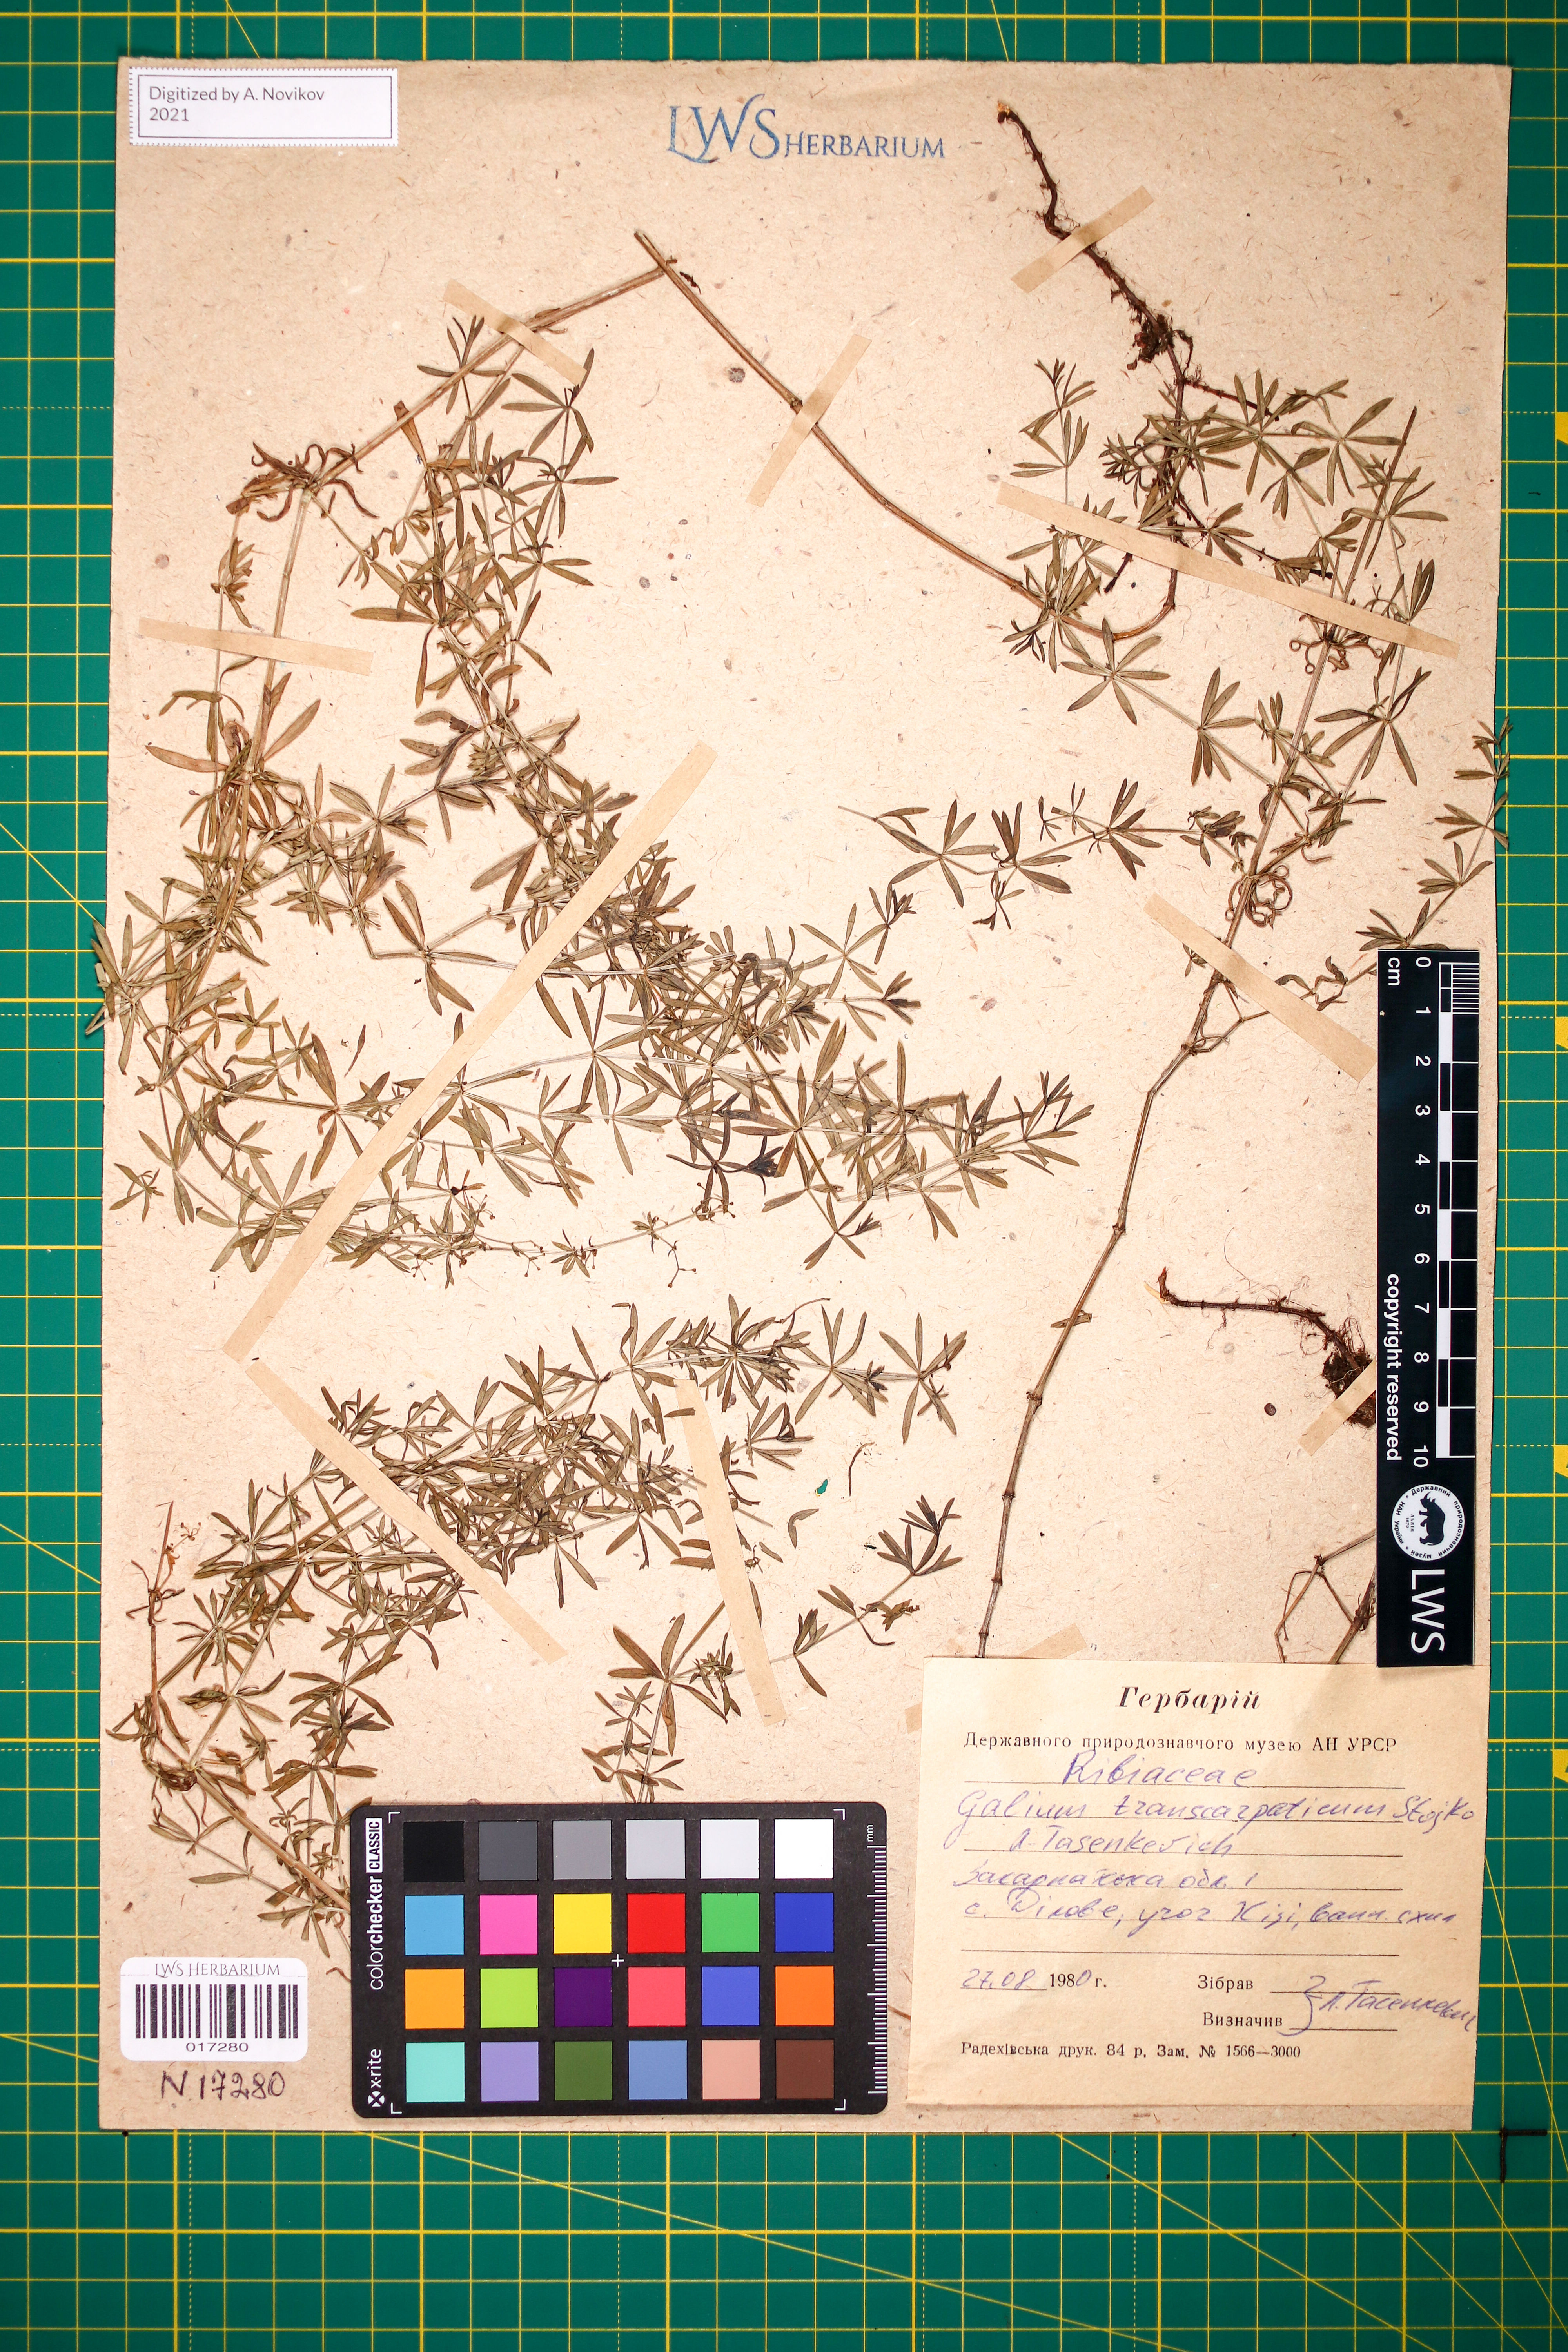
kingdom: Plantae
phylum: Tracheophyta
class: Magnoliopsida
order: Gentianales
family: Rubiaceae
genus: Galium
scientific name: Galium transcarpaticum
